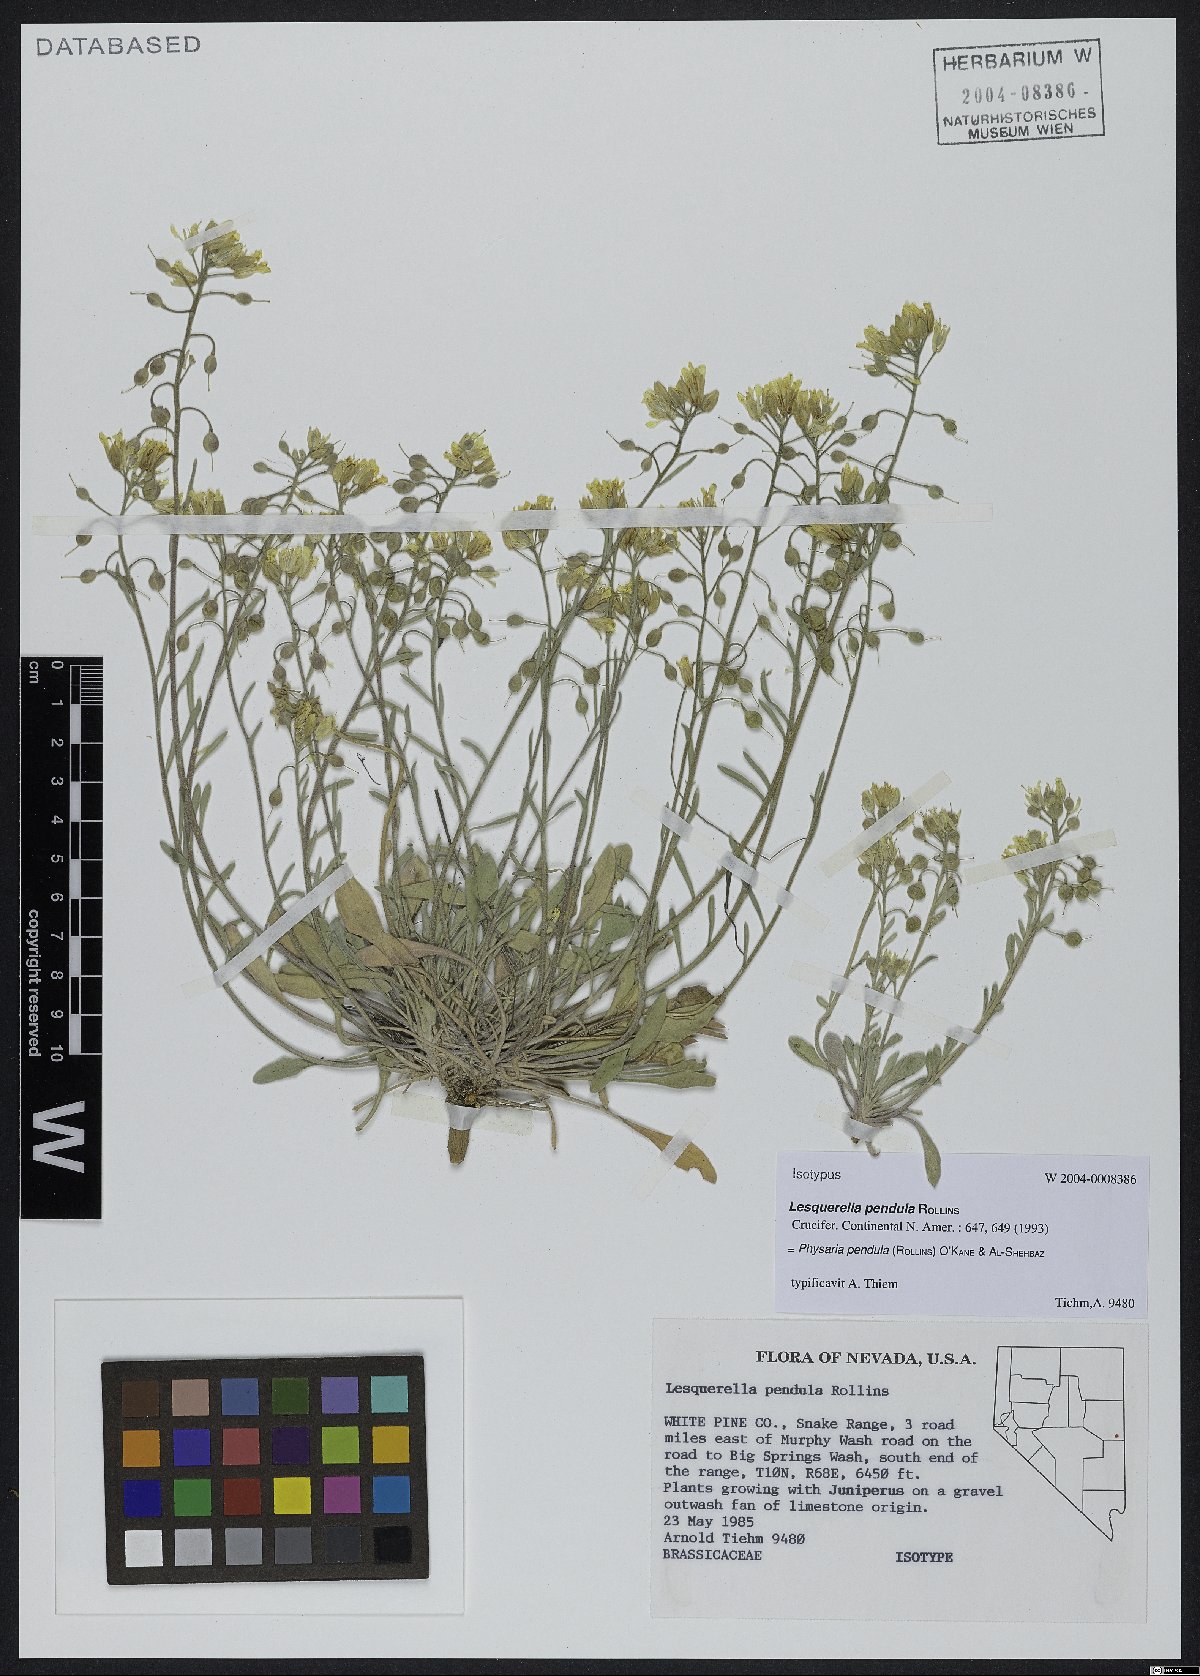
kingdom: Plantae
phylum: Tracheophyta
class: Magnoliopsida
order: Brassicales
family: Brassicaceae
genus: Physaria
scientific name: Physaria pendula
